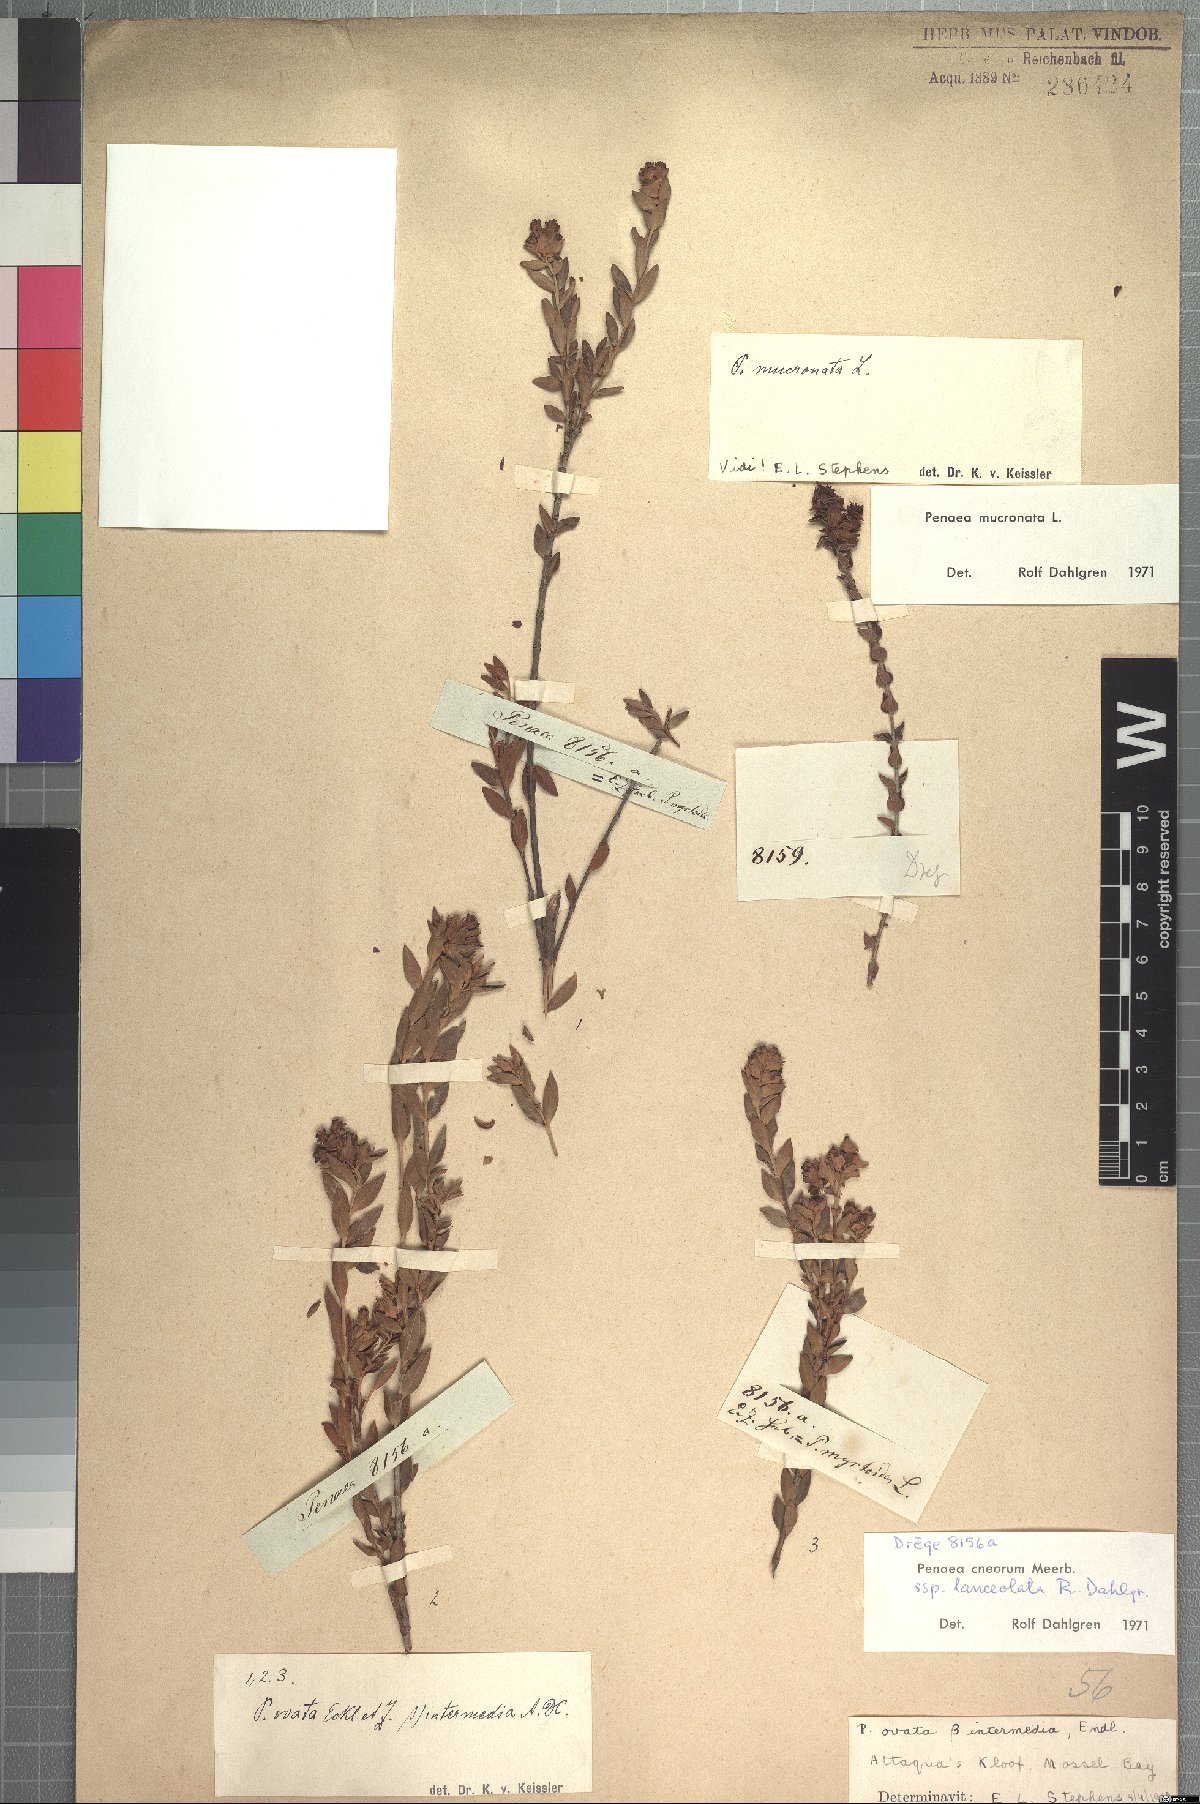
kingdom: Plantae
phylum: Tracheophyta
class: Magnoliopsida
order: Myrtales
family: Penaeaceae
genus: Penaea
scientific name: Penaea cneorum
